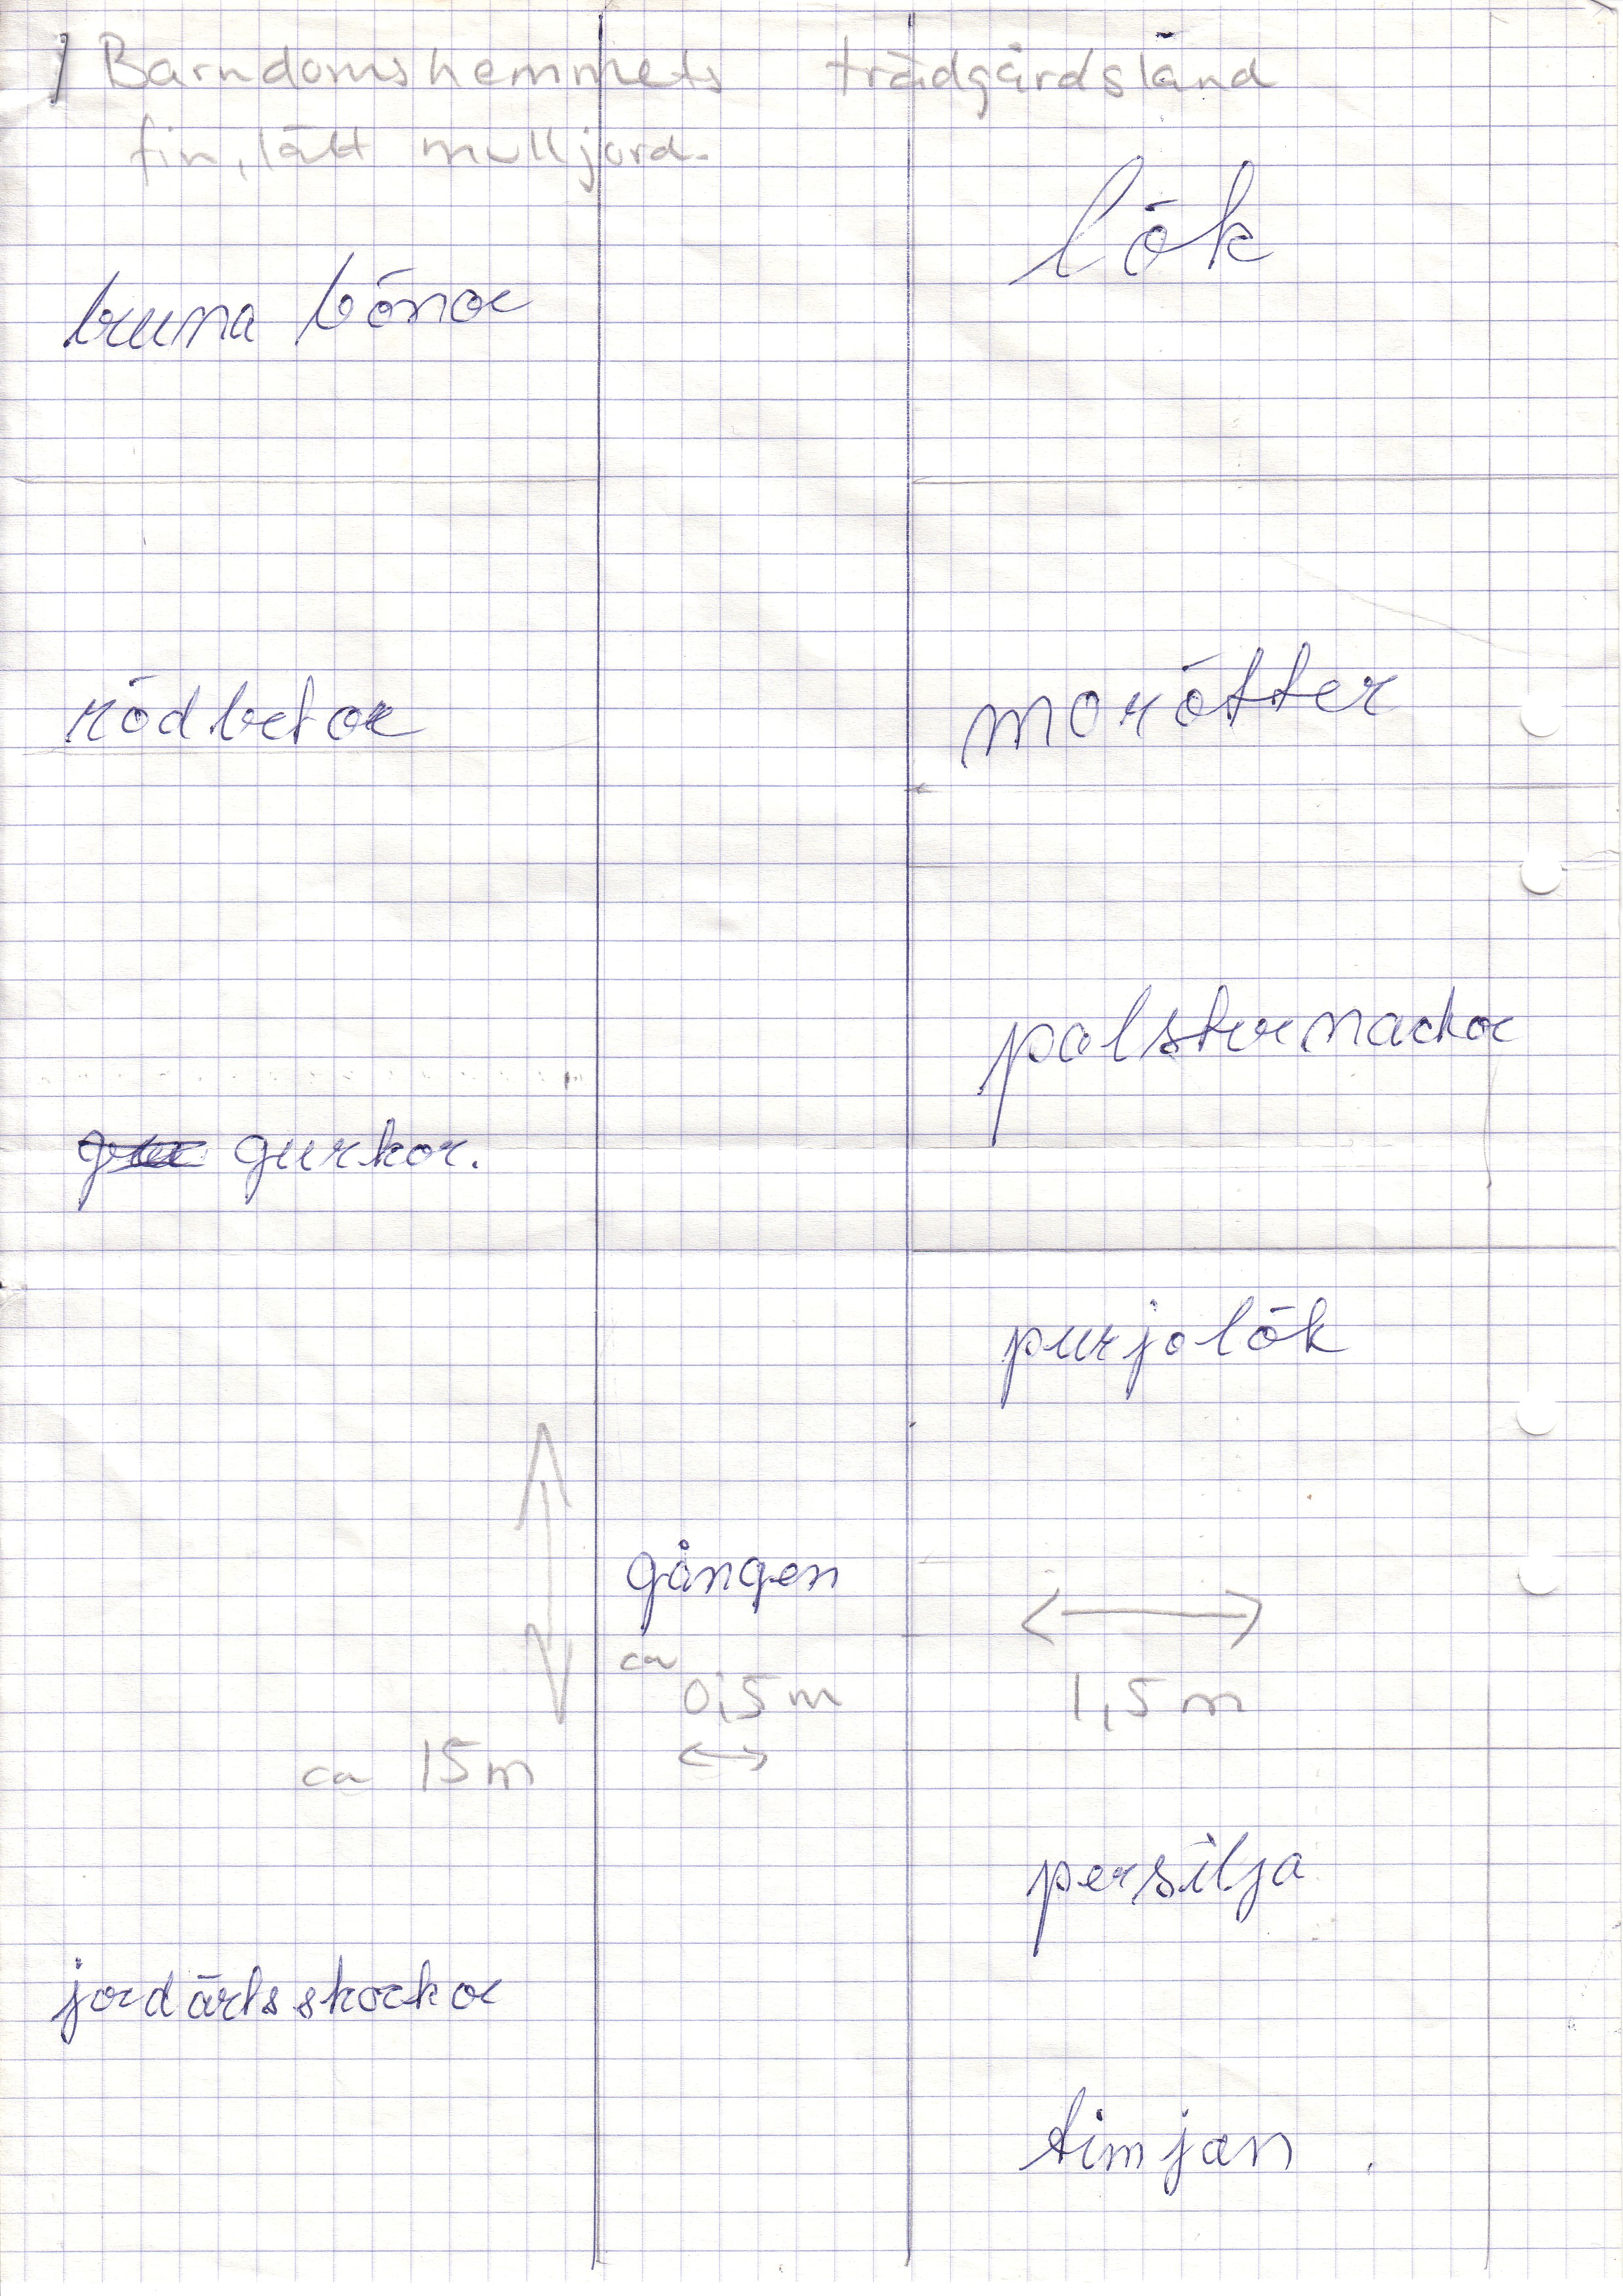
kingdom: Plantae
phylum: Tracheophyta
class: Liliopsida
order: Asparagales
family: Amaryllidaceae
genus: Allium
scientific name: Allium cepa
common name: Onion
